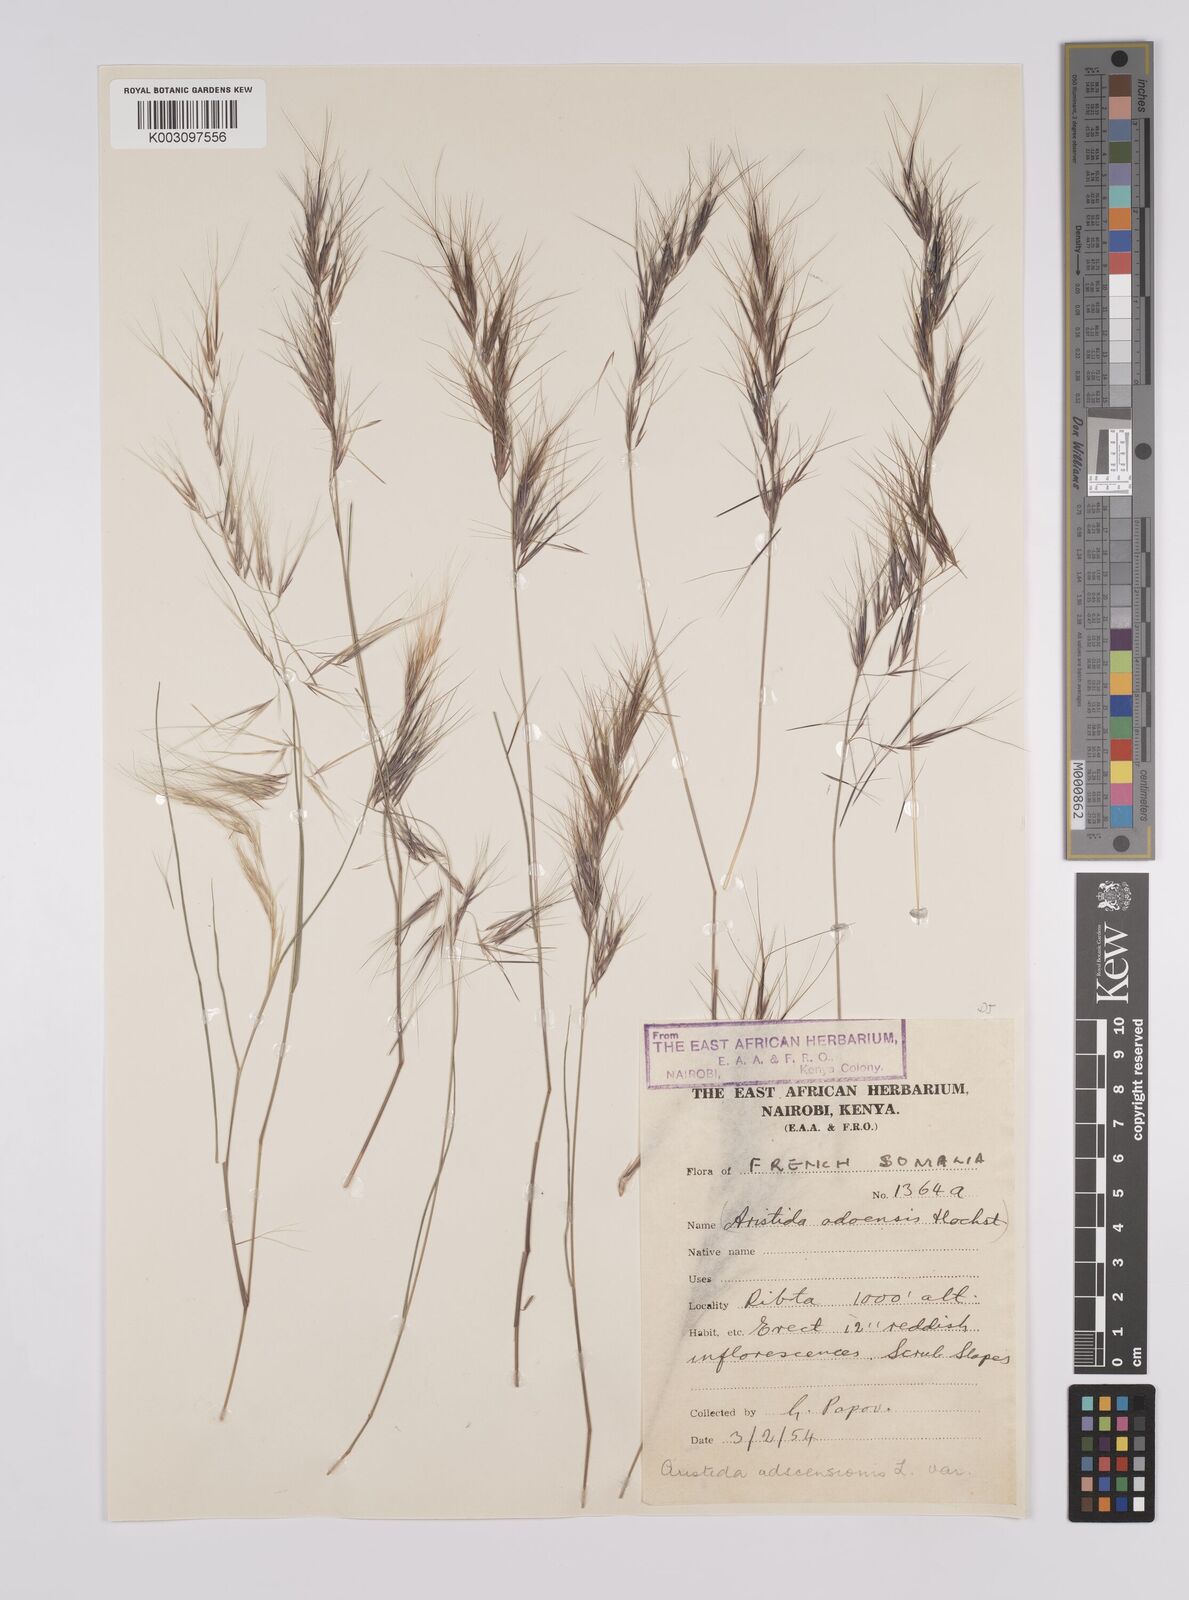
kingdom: Plantae
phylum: Tracheophyta
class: Liliopsida
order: Poales
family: Poaceae
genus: Aristida
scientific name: Aristida adscensionis
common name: Sixweeks threeawn
